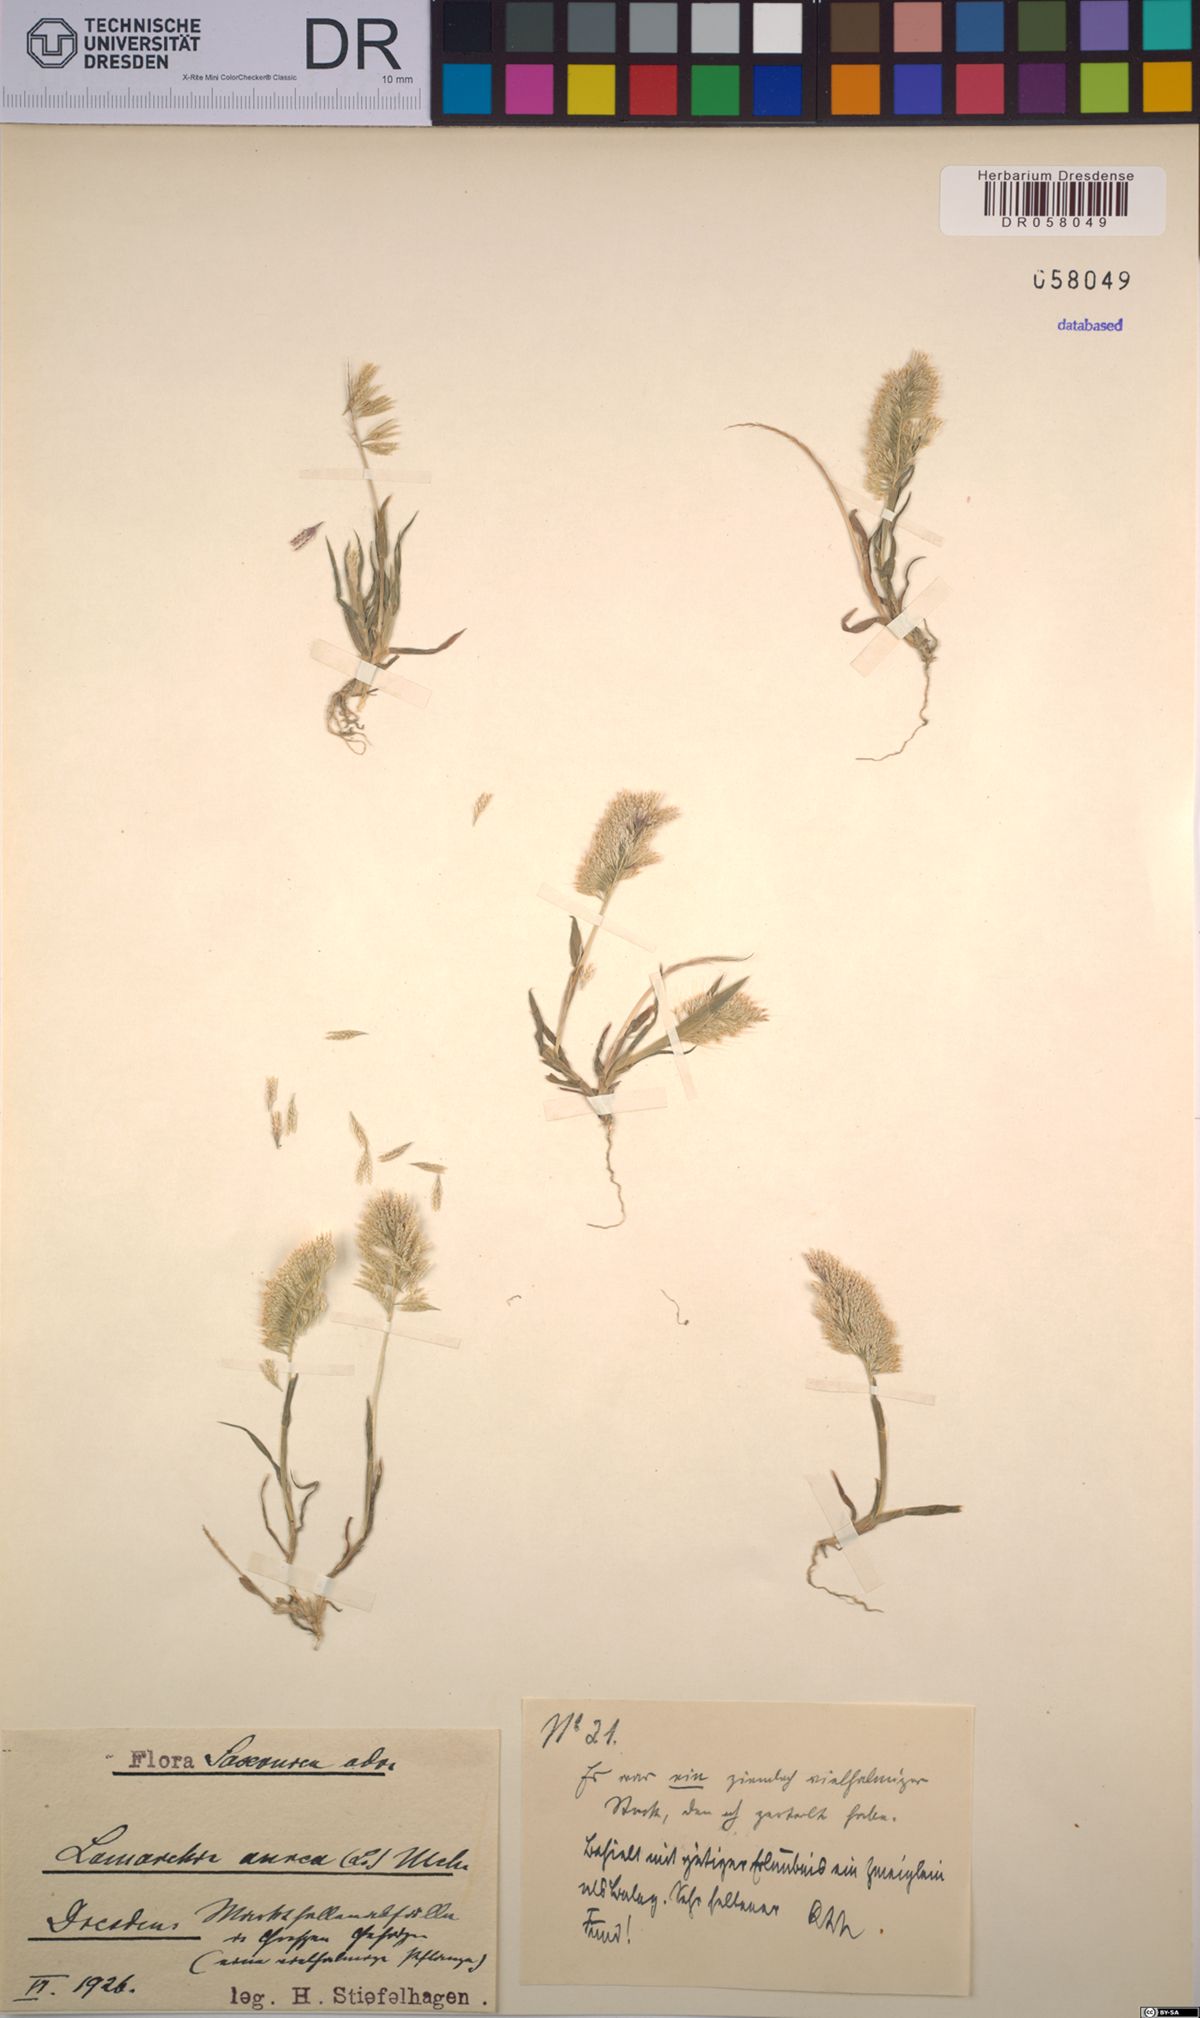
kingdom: Plantae
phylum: Tracheophyta
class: Liliopsida
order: Poales
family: Poaceae
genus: Lamarckia
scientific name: Lamarckia aurea
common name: Golden dog's-tail
